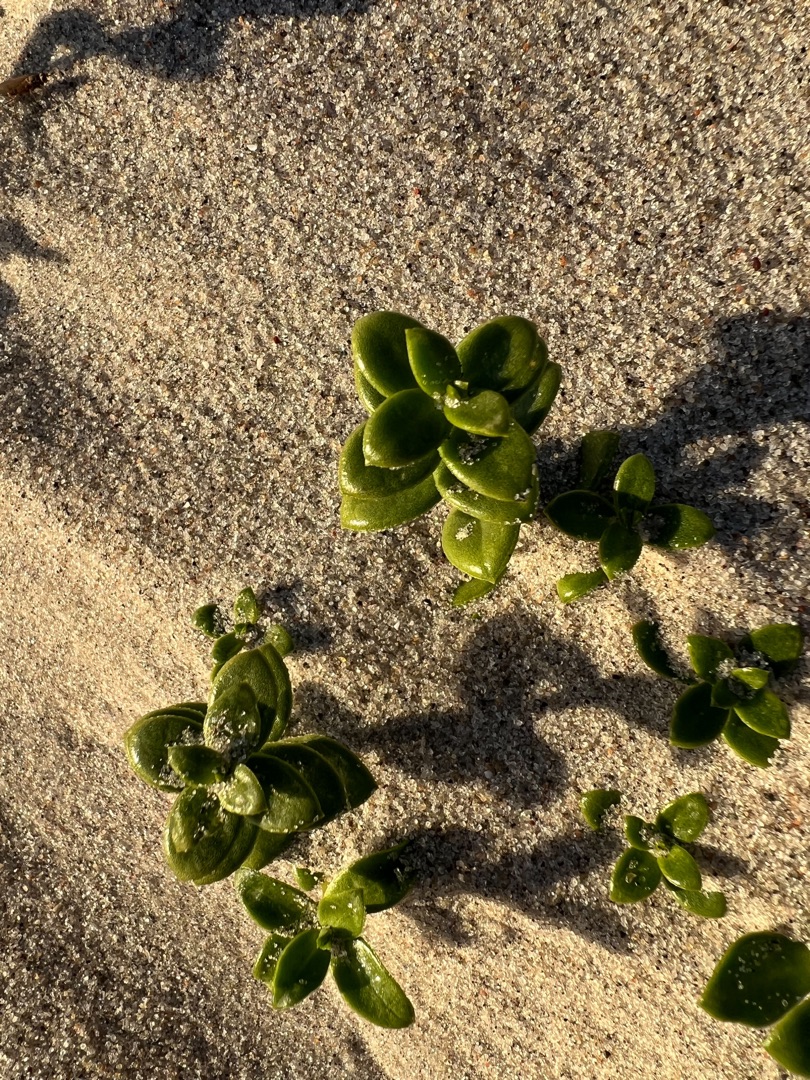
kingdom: Plantae
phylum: Tracheophyta
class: Magnoliopsida
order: Caryophyllales
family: Caryophyllaceae
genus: Honckenya
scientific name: Honckenya peploides
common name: Strandarve
